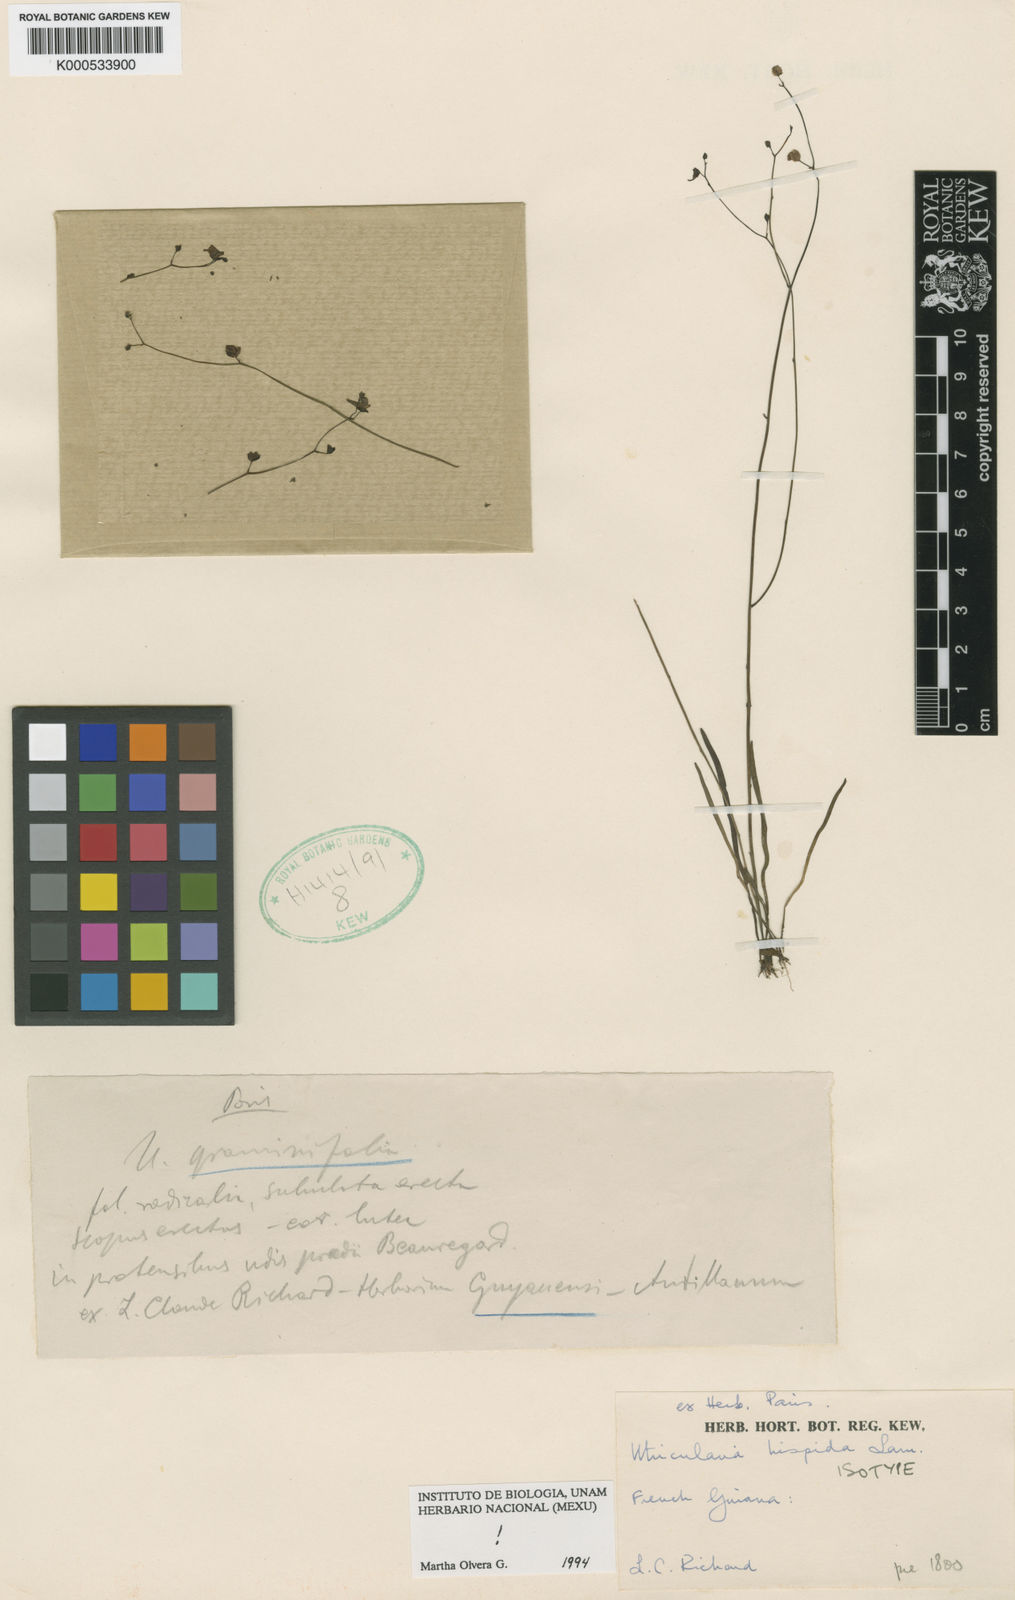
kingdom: Plantae
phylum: Tracheophyta
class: Magnoliopsida
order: Lamiales
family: Lentibulariaceae
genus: Utricularia
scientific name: Utricularia hispida
